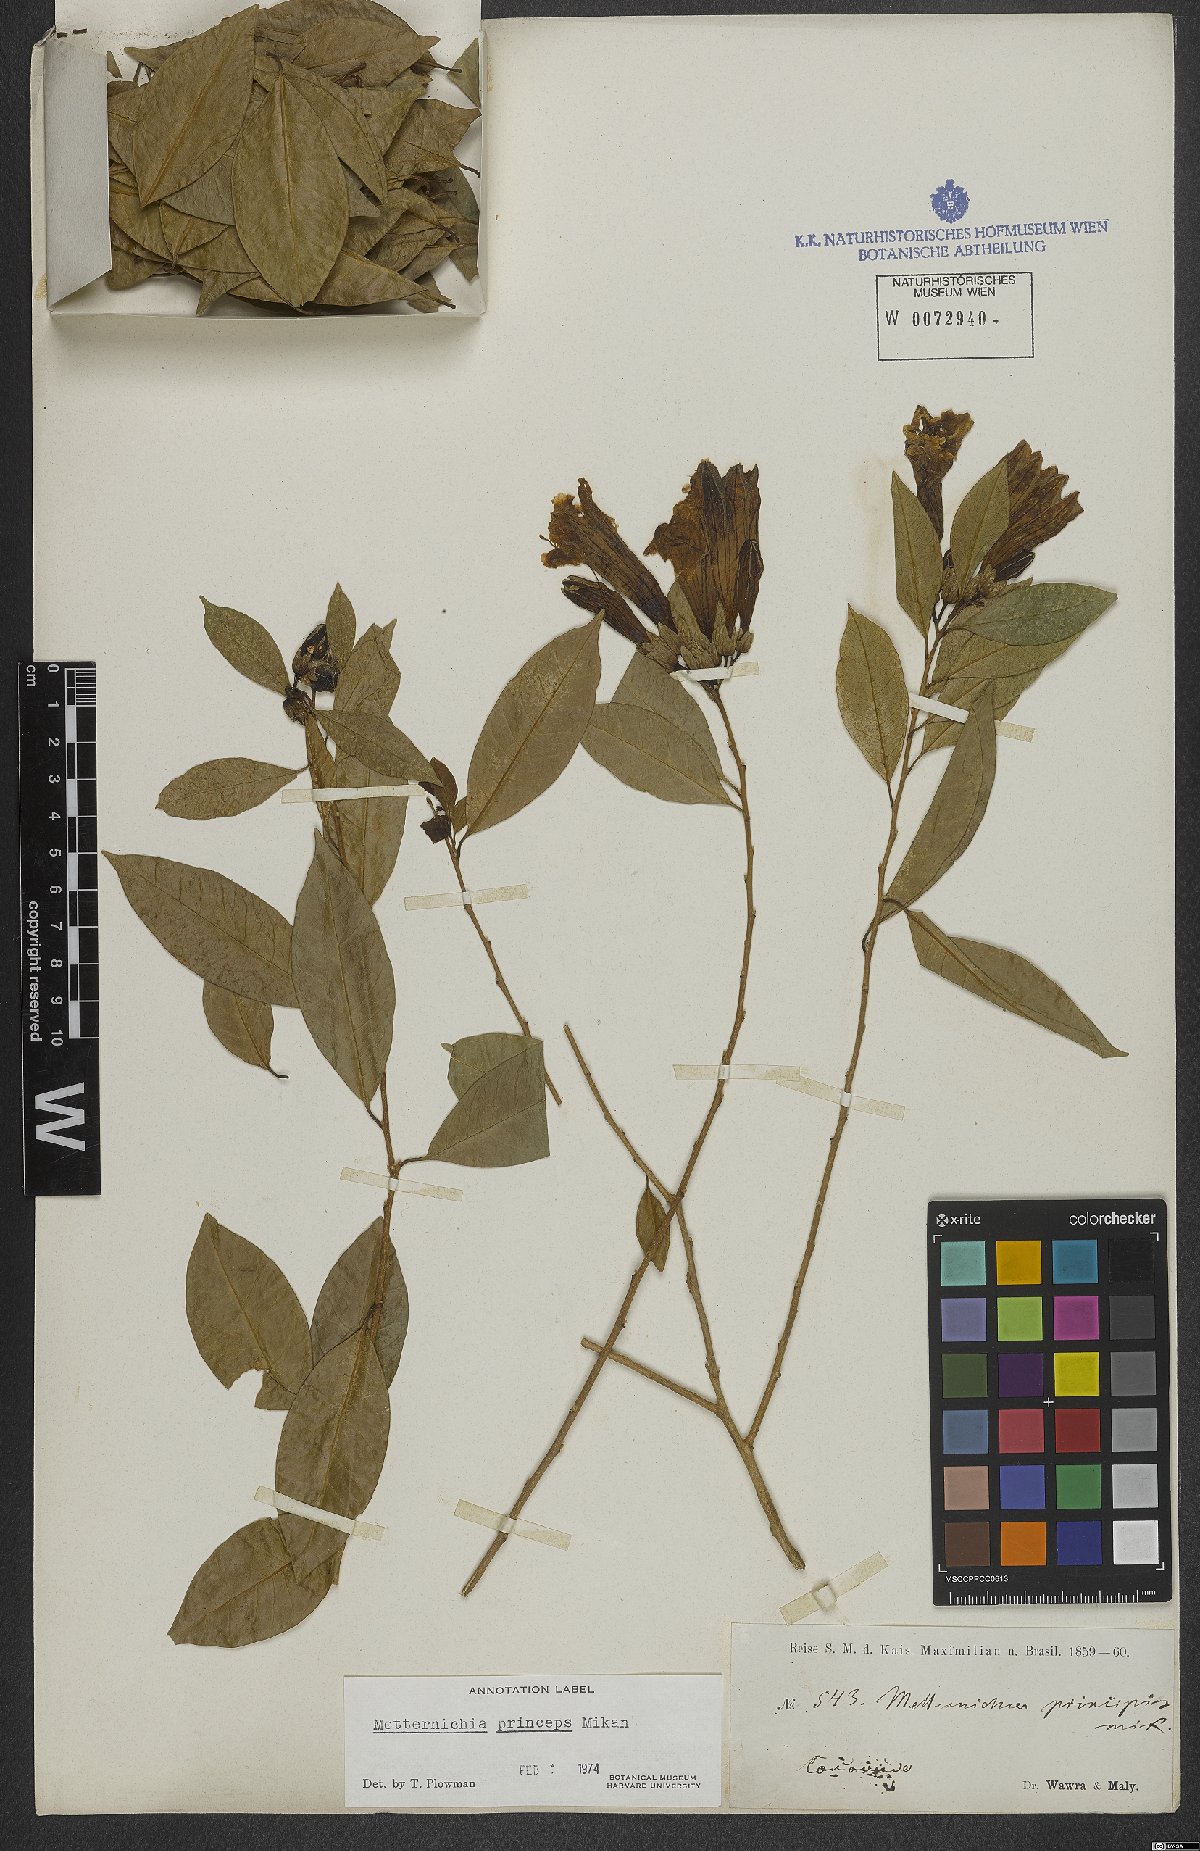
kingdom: Plantae
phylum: Tracheophyta
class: Magnoliopsida
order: Solanales
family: Solanaceae
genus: Metternichia
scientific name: Metternichia principis
